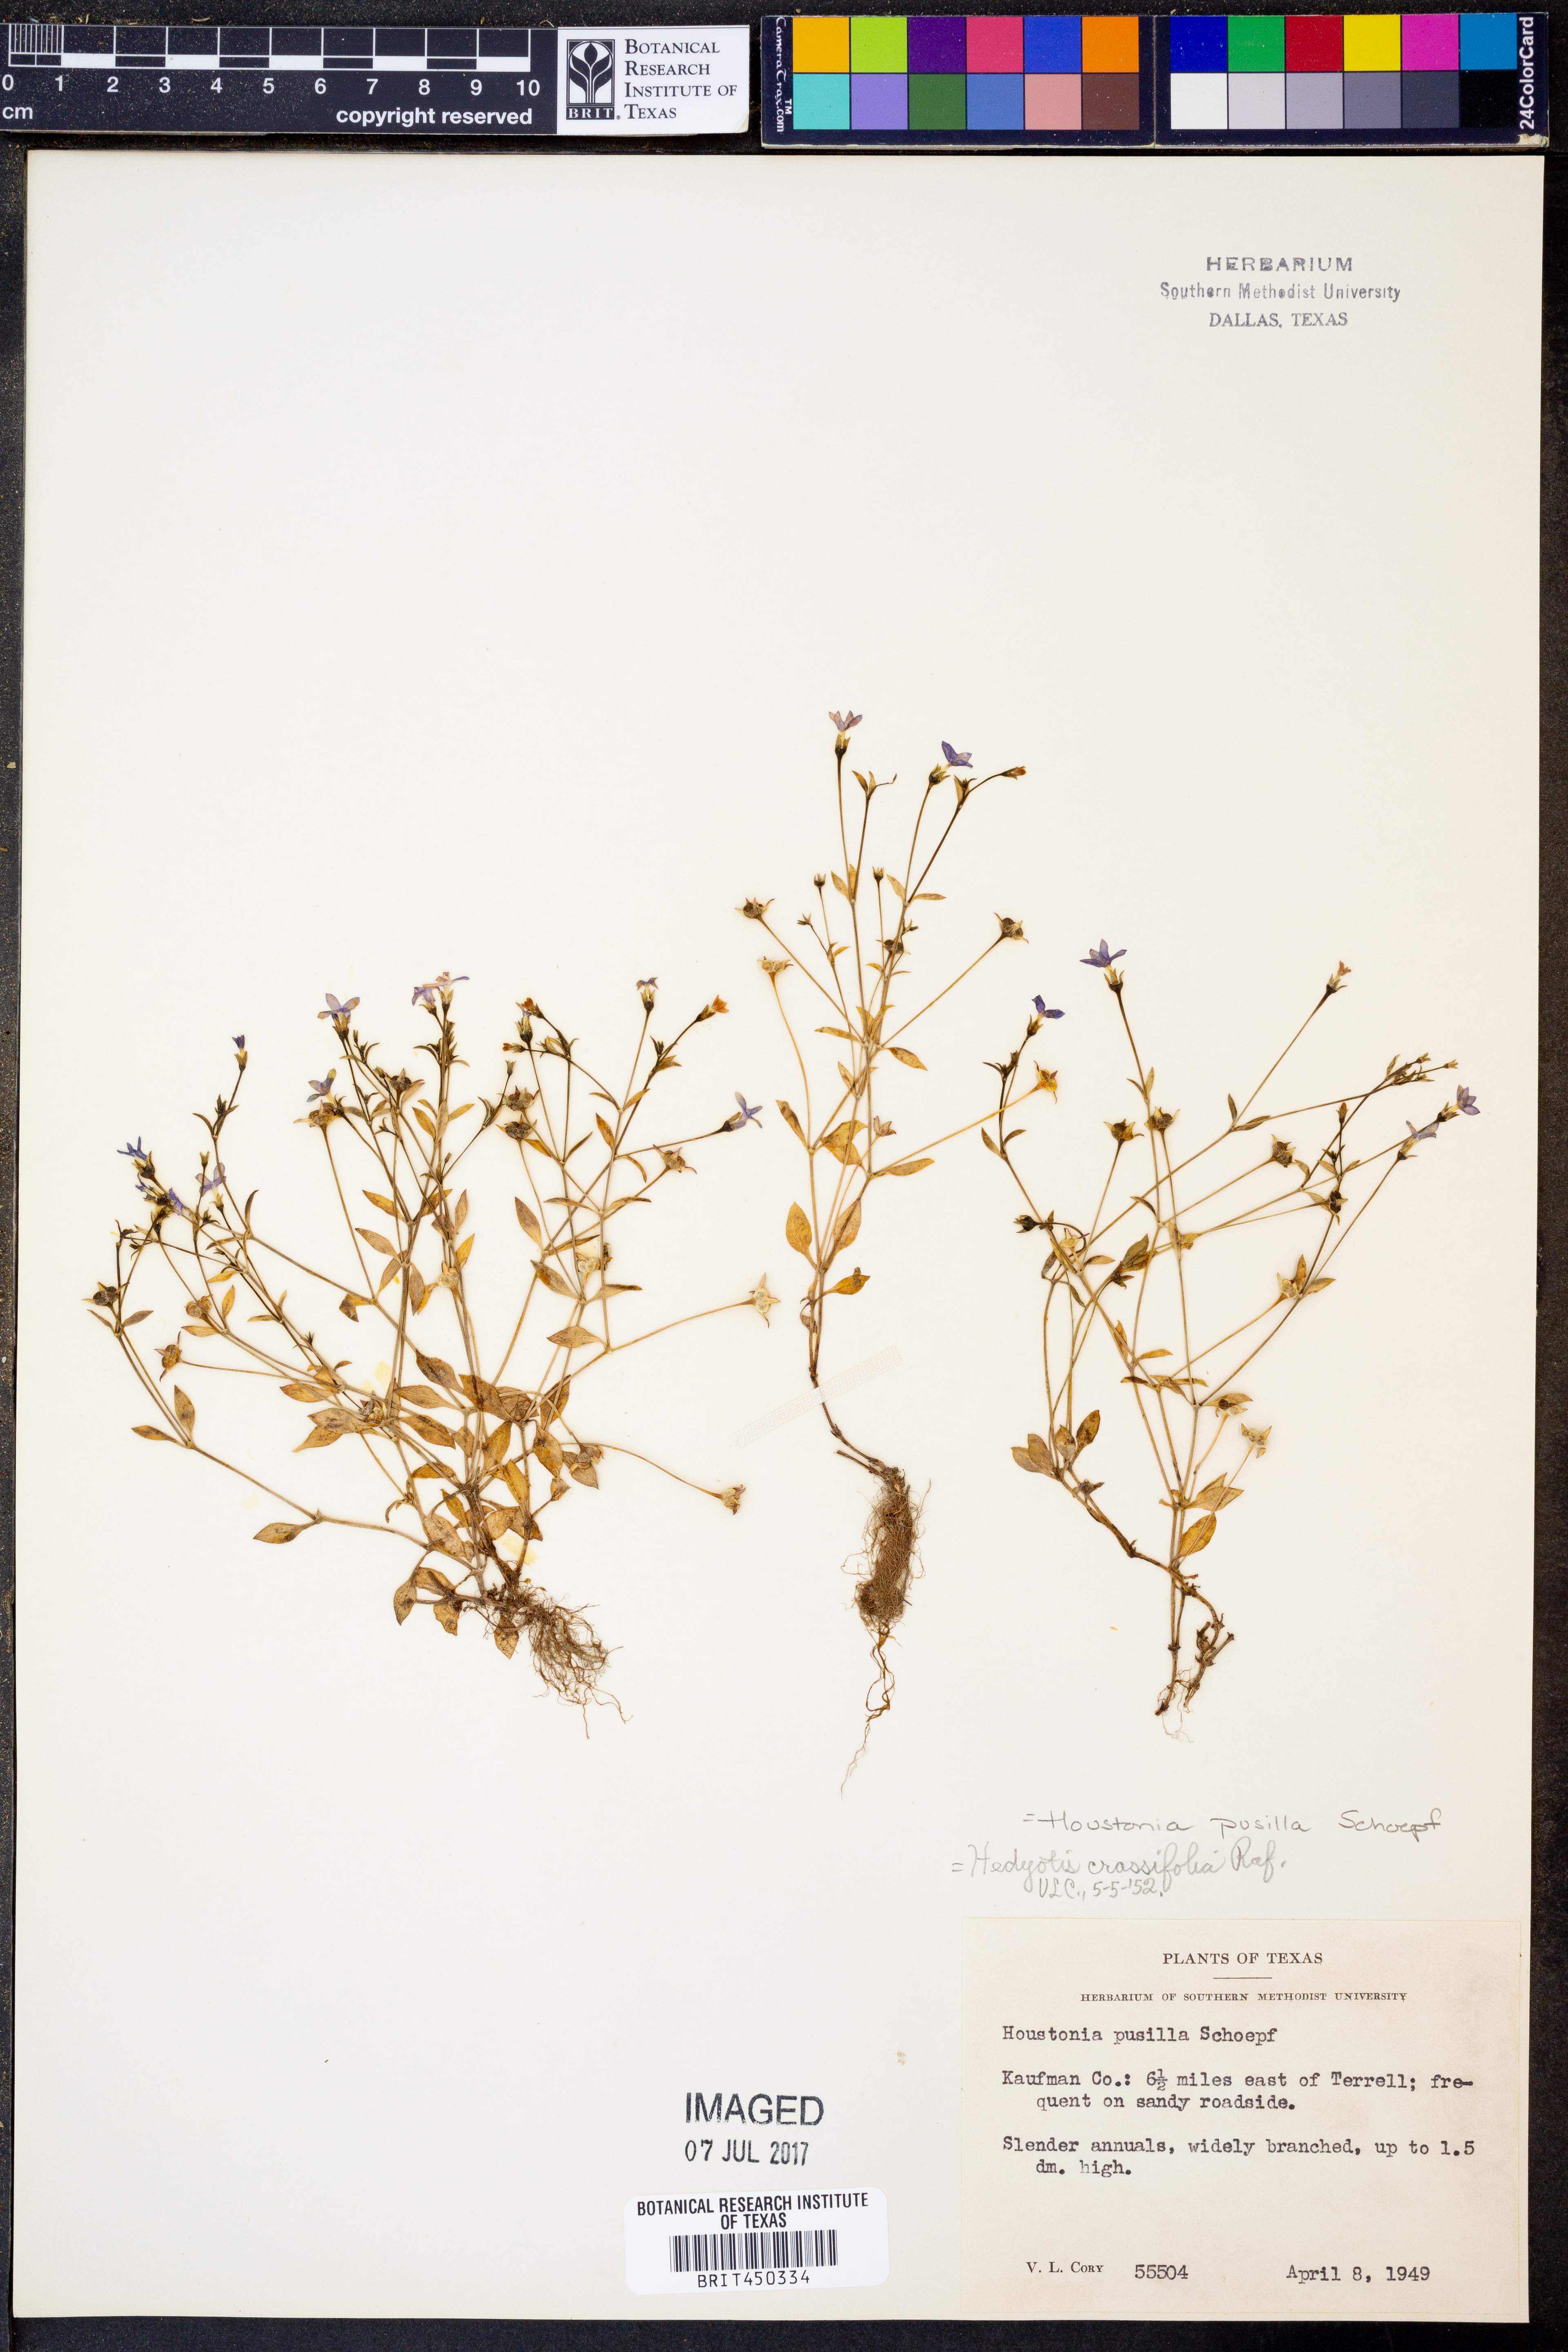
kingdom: Plantae
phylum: Tracheophyta
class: Magnoliopsida
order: Gentianales
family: Rubiaceae
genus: Houstonia
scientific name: Houstonia pusilla
